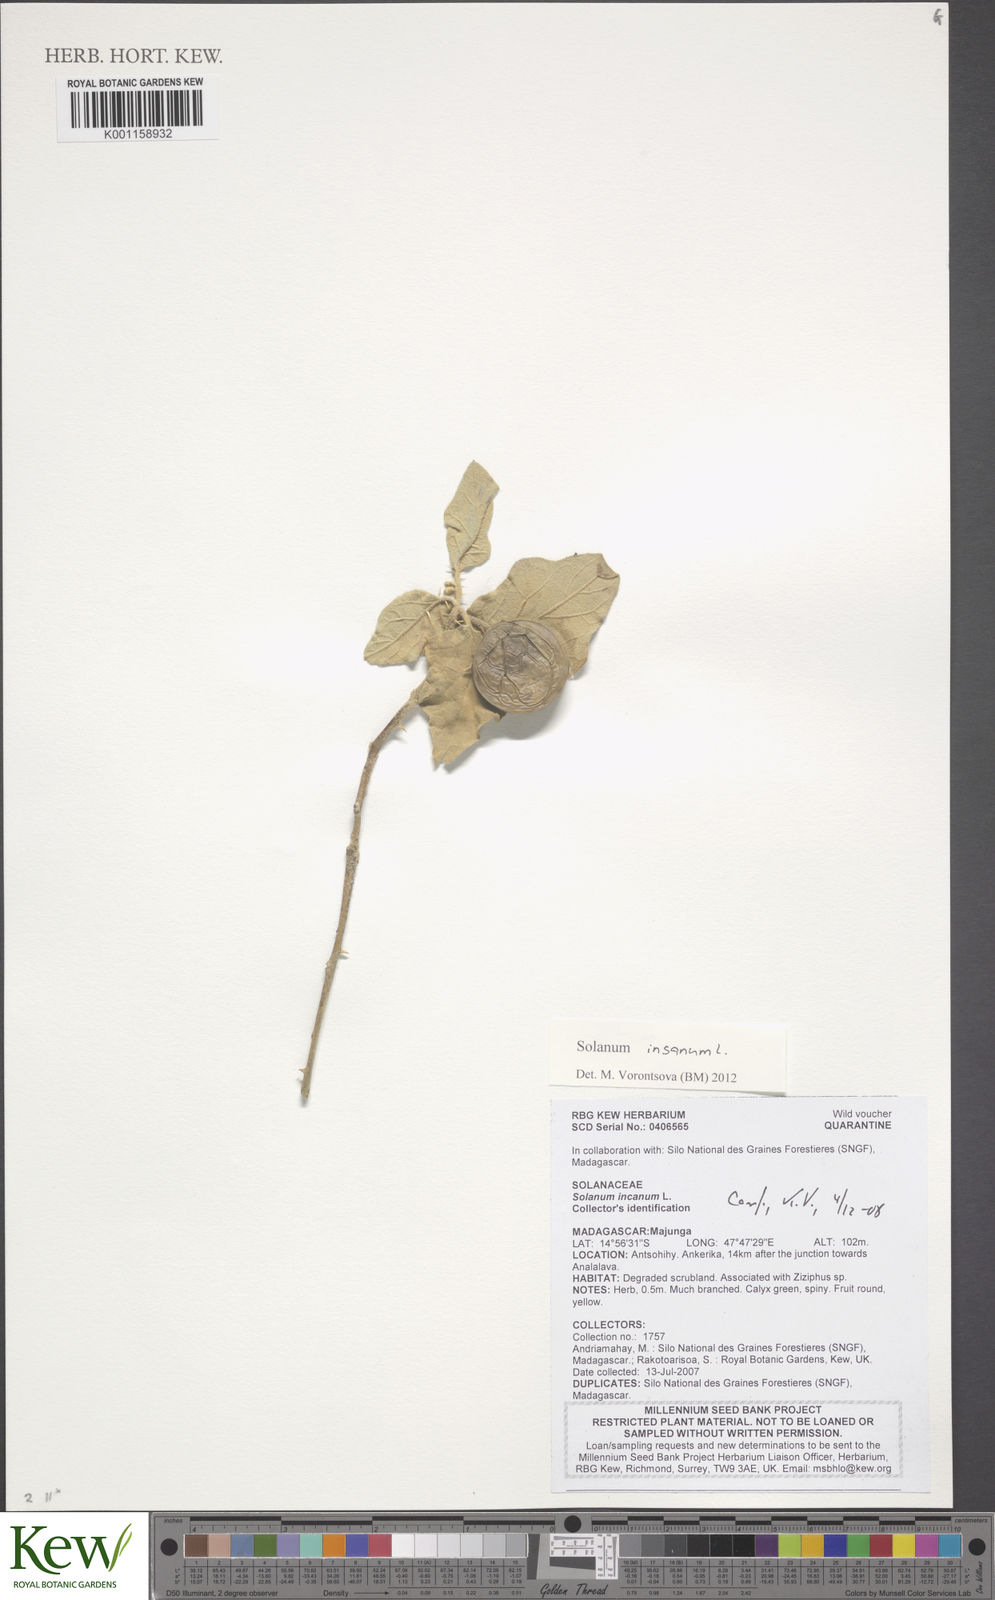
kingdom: Plantae
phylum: Tracheophyta
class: Magnoliopsida
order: Solanales
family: Solanaceae
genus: Solanum
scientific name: Solanum insanum
